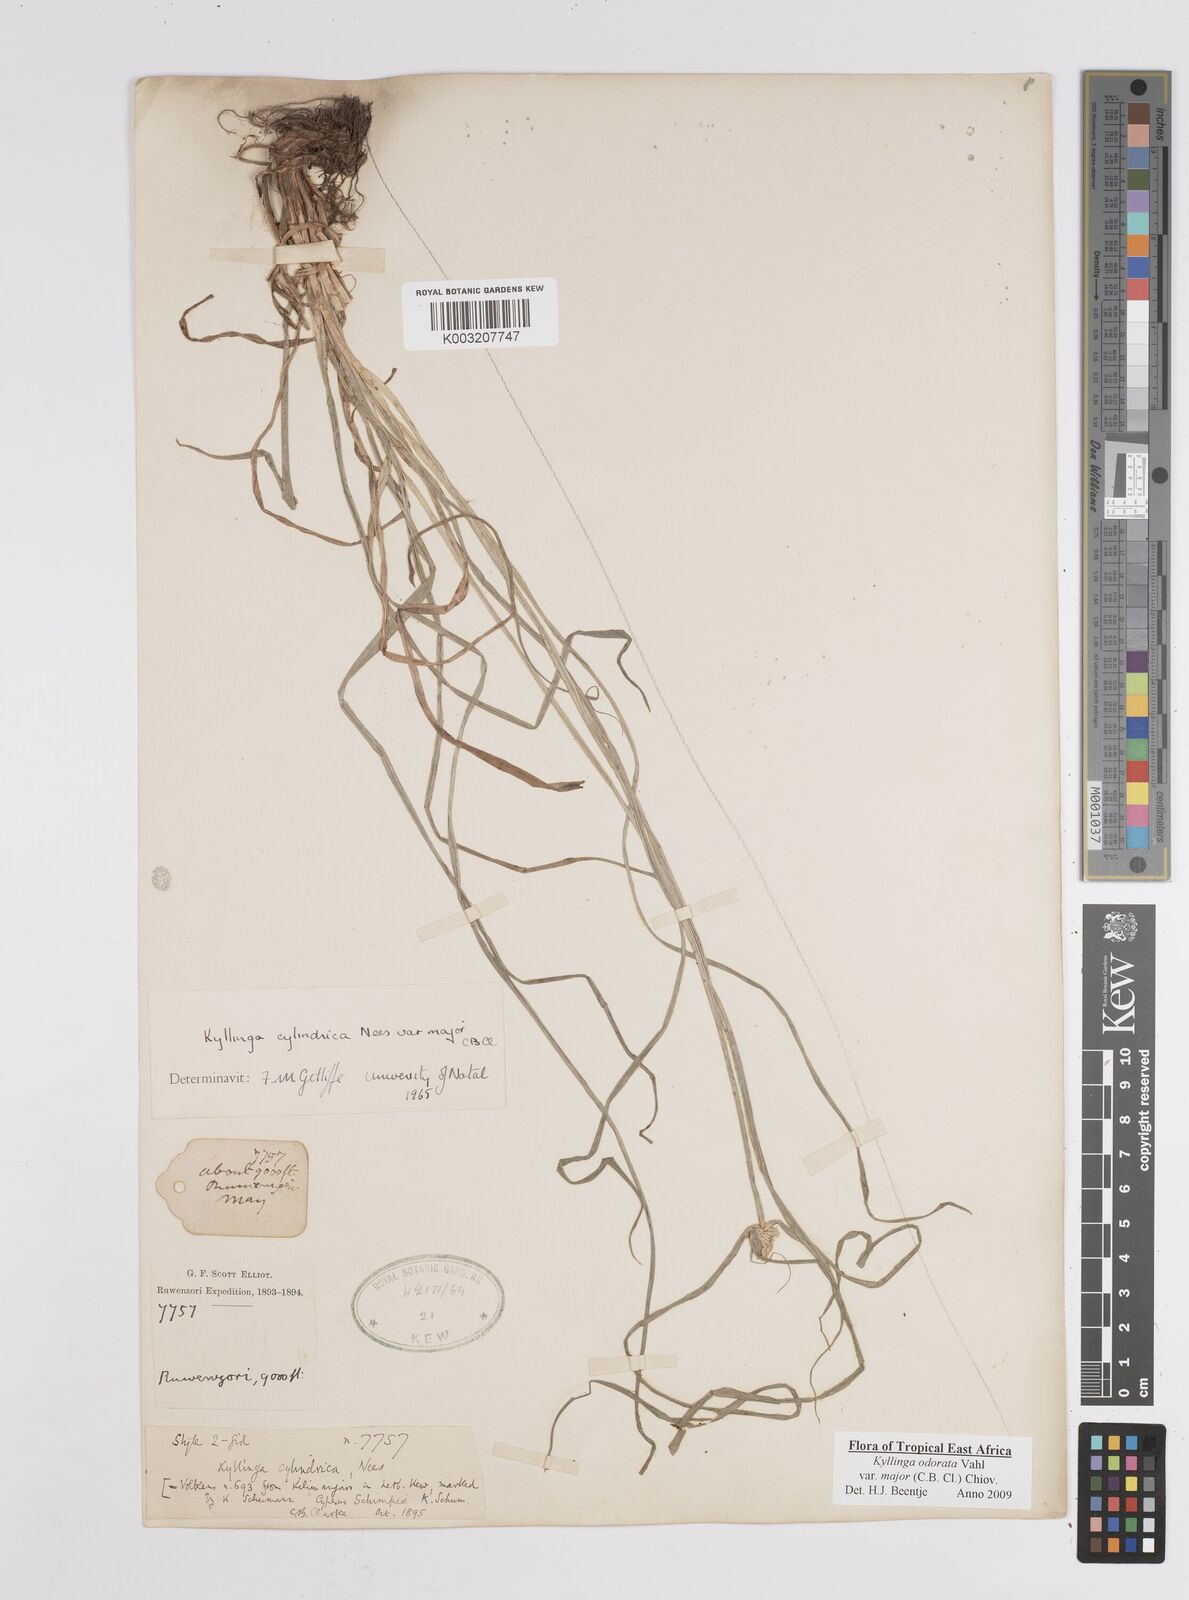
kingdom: Plantae
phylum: Tracheophyta
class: Liliopsida
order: Poales
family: Cyperaceae
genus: Cyperus
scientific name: Cyperus
